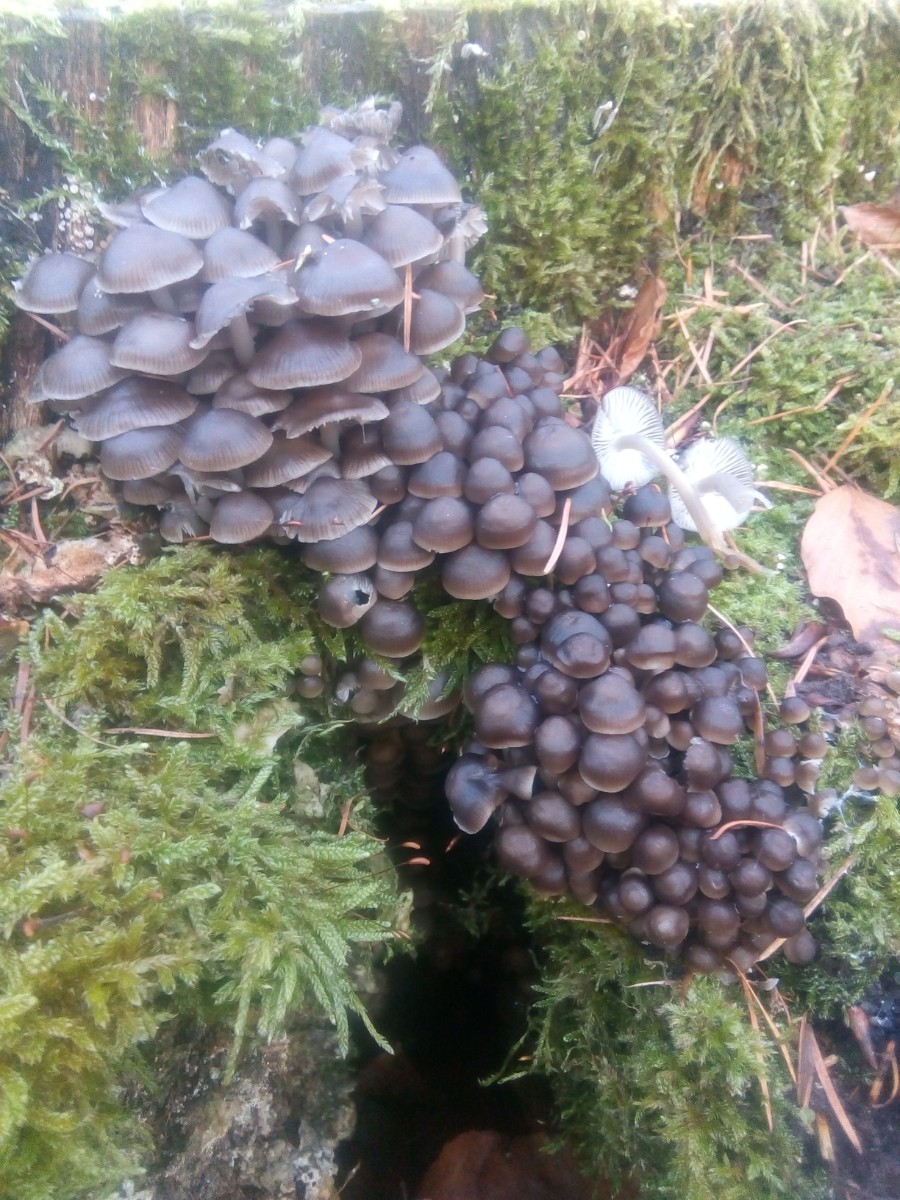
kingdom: Fungi
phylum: Basidiomycota
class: Agaricomycetes
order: Agaricales
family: Mycenaceae
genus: Mycena
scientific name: Mycena tintinnabulum
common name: vinter-huesvamp
